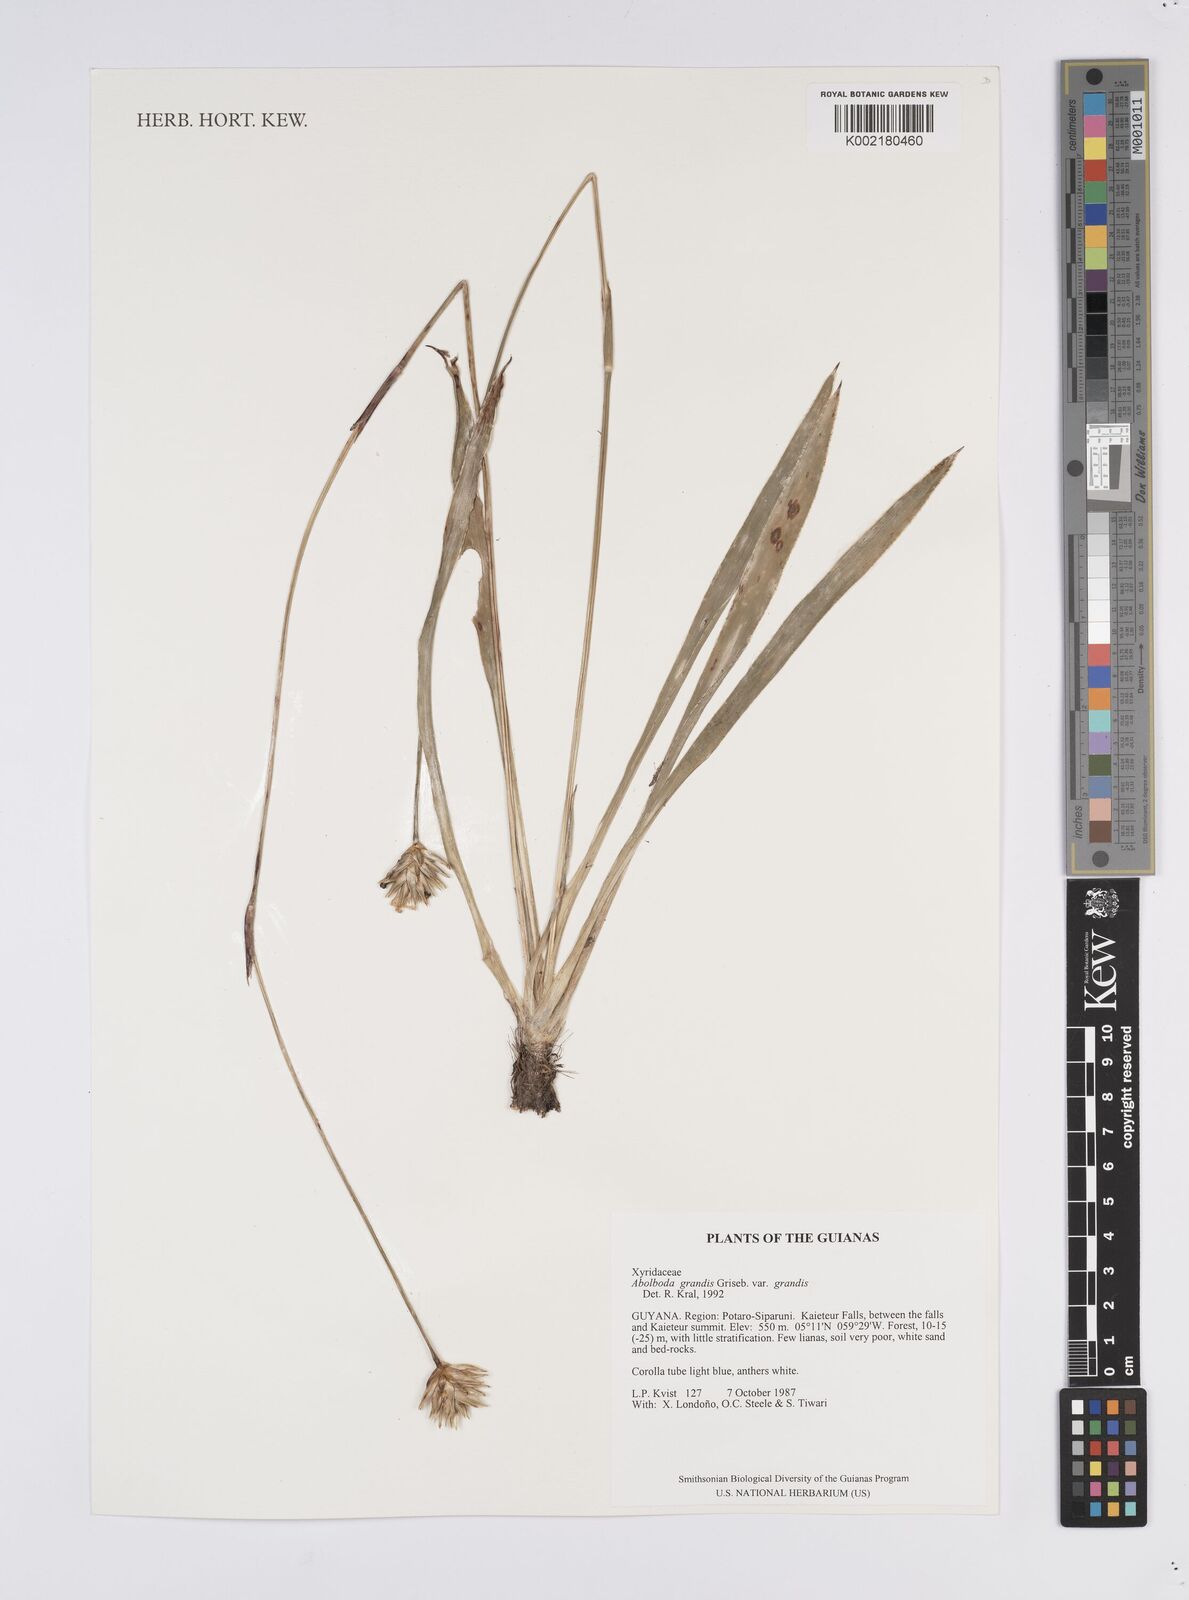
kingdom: Plantae
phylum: Tracheophyta
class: Liliopsida
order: Poales
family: Xyridaceae
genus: Abolboda
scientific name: Abolboda grandis
